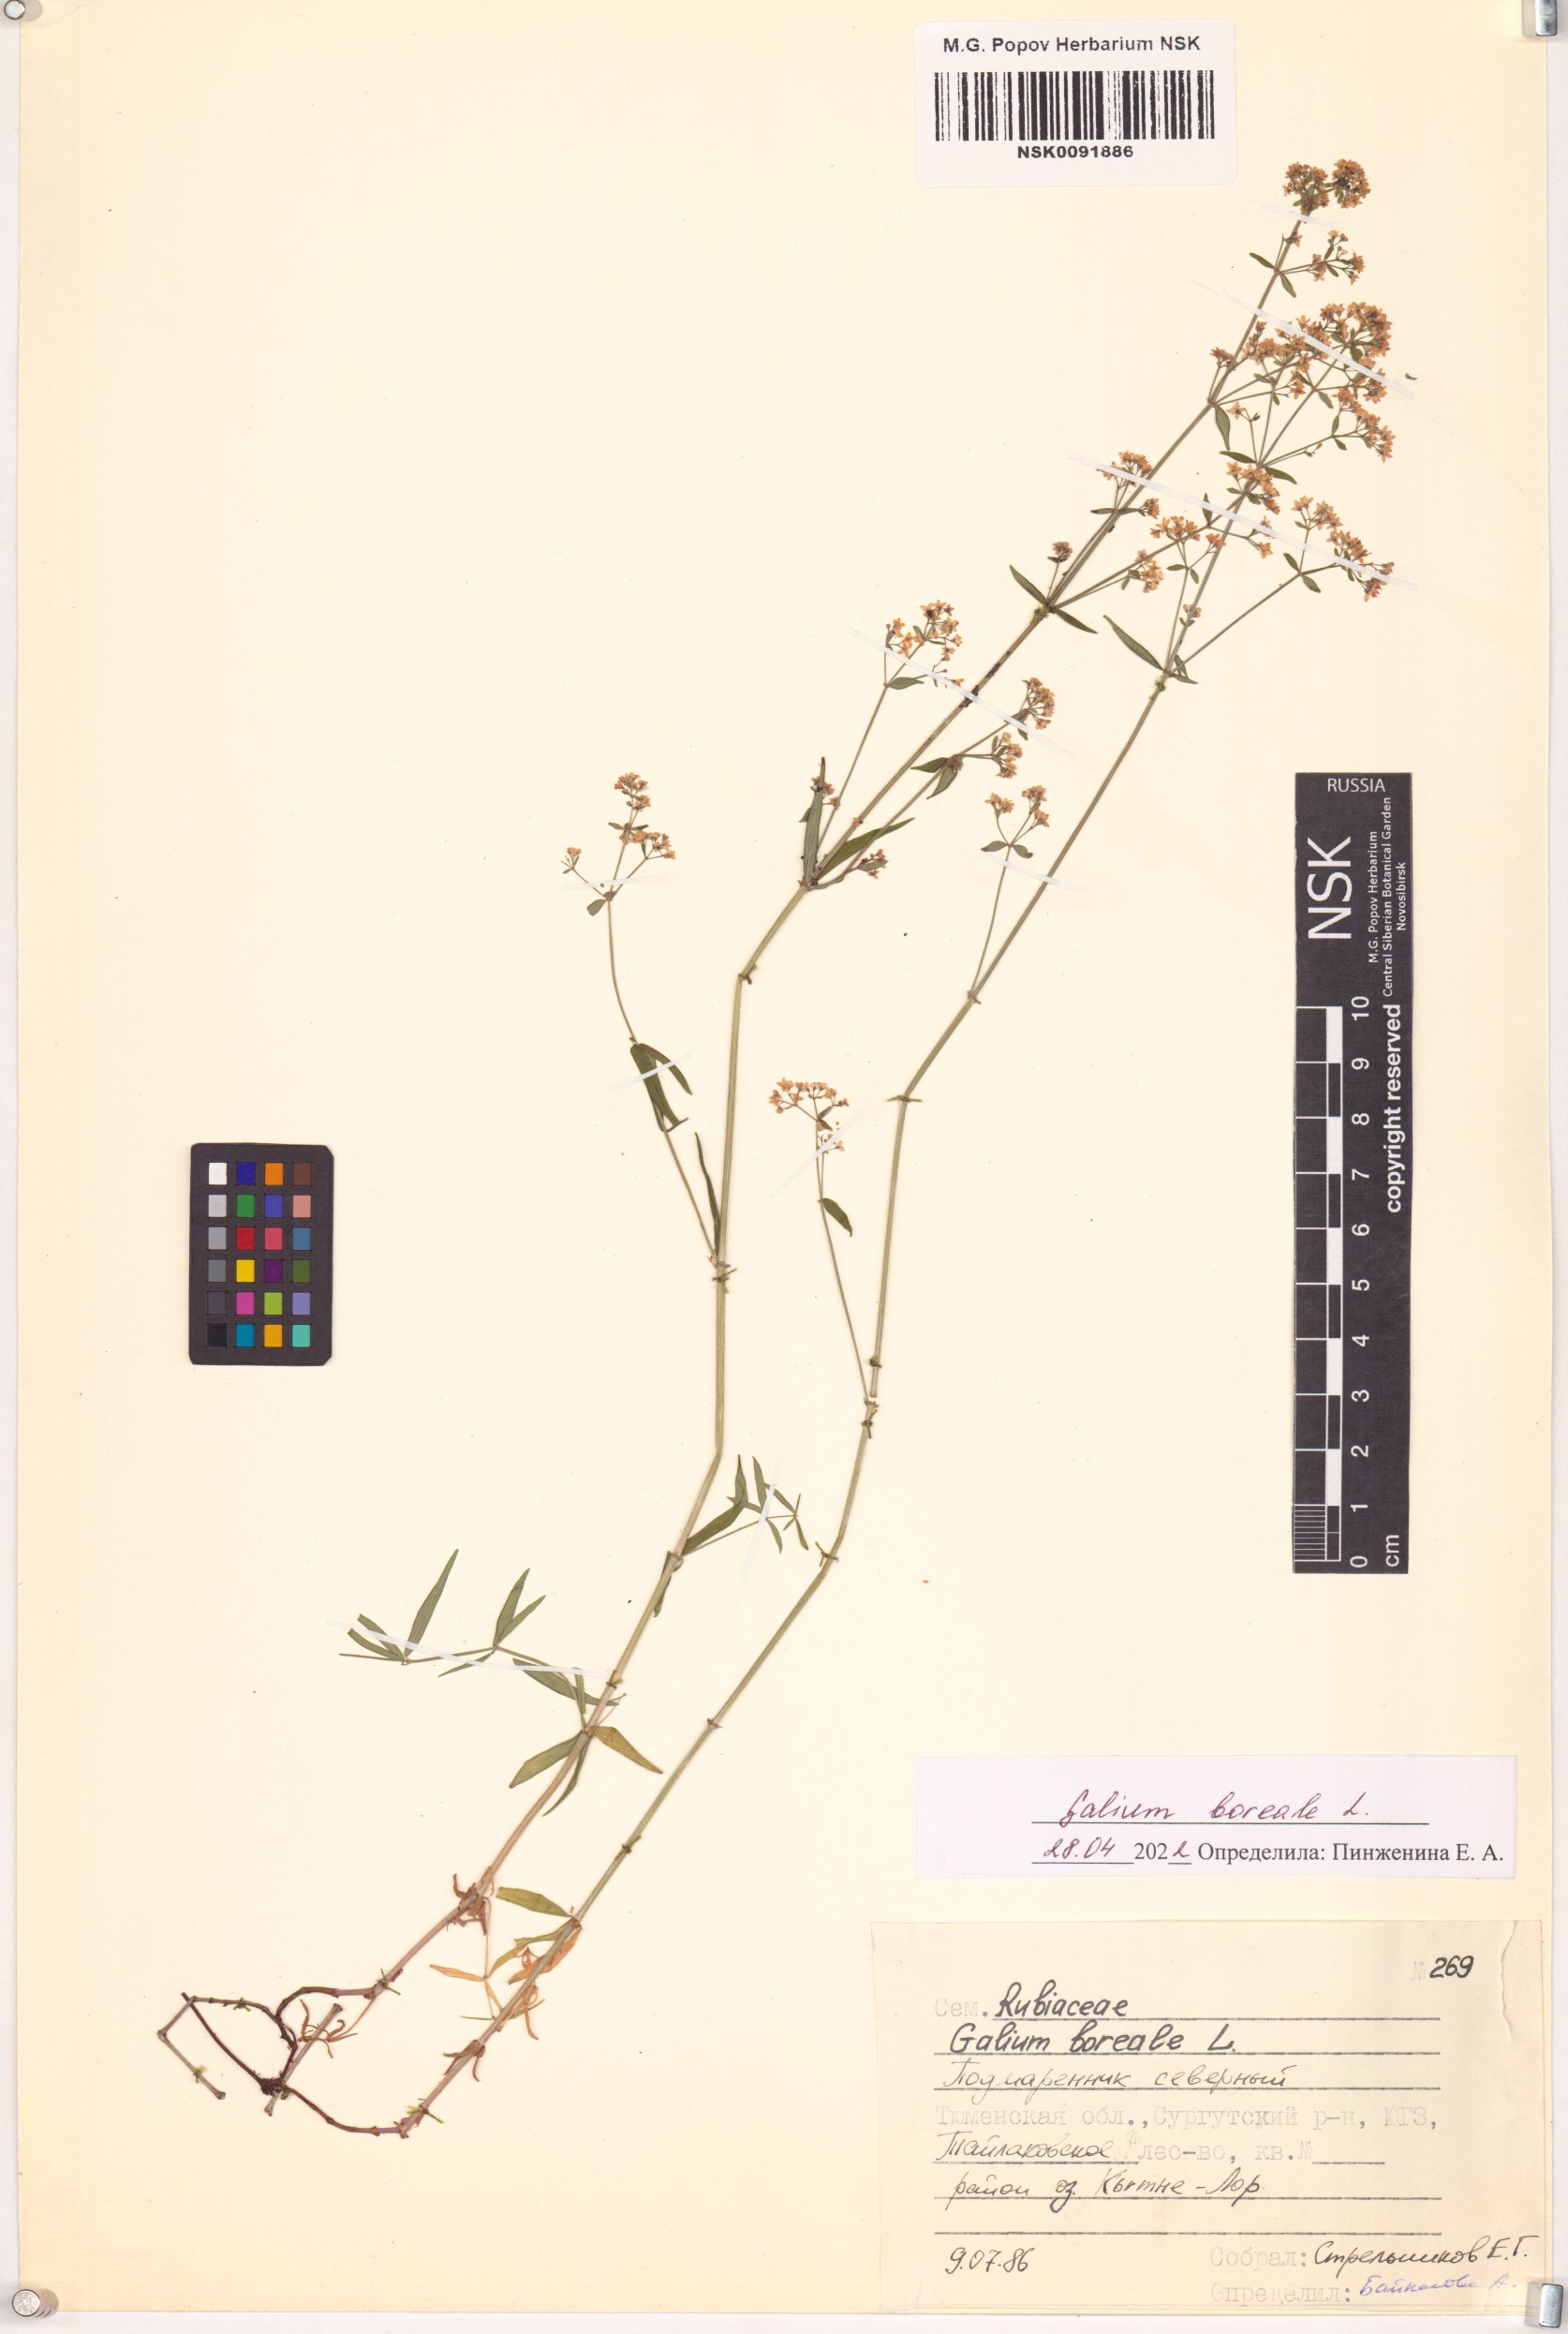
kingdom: Plantae
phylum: Tracheophyta
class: Magnoliopsida
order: Gentianales
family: Rubiaceae
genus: Galium
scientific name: Galium boreale
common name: Northern bedstraw
